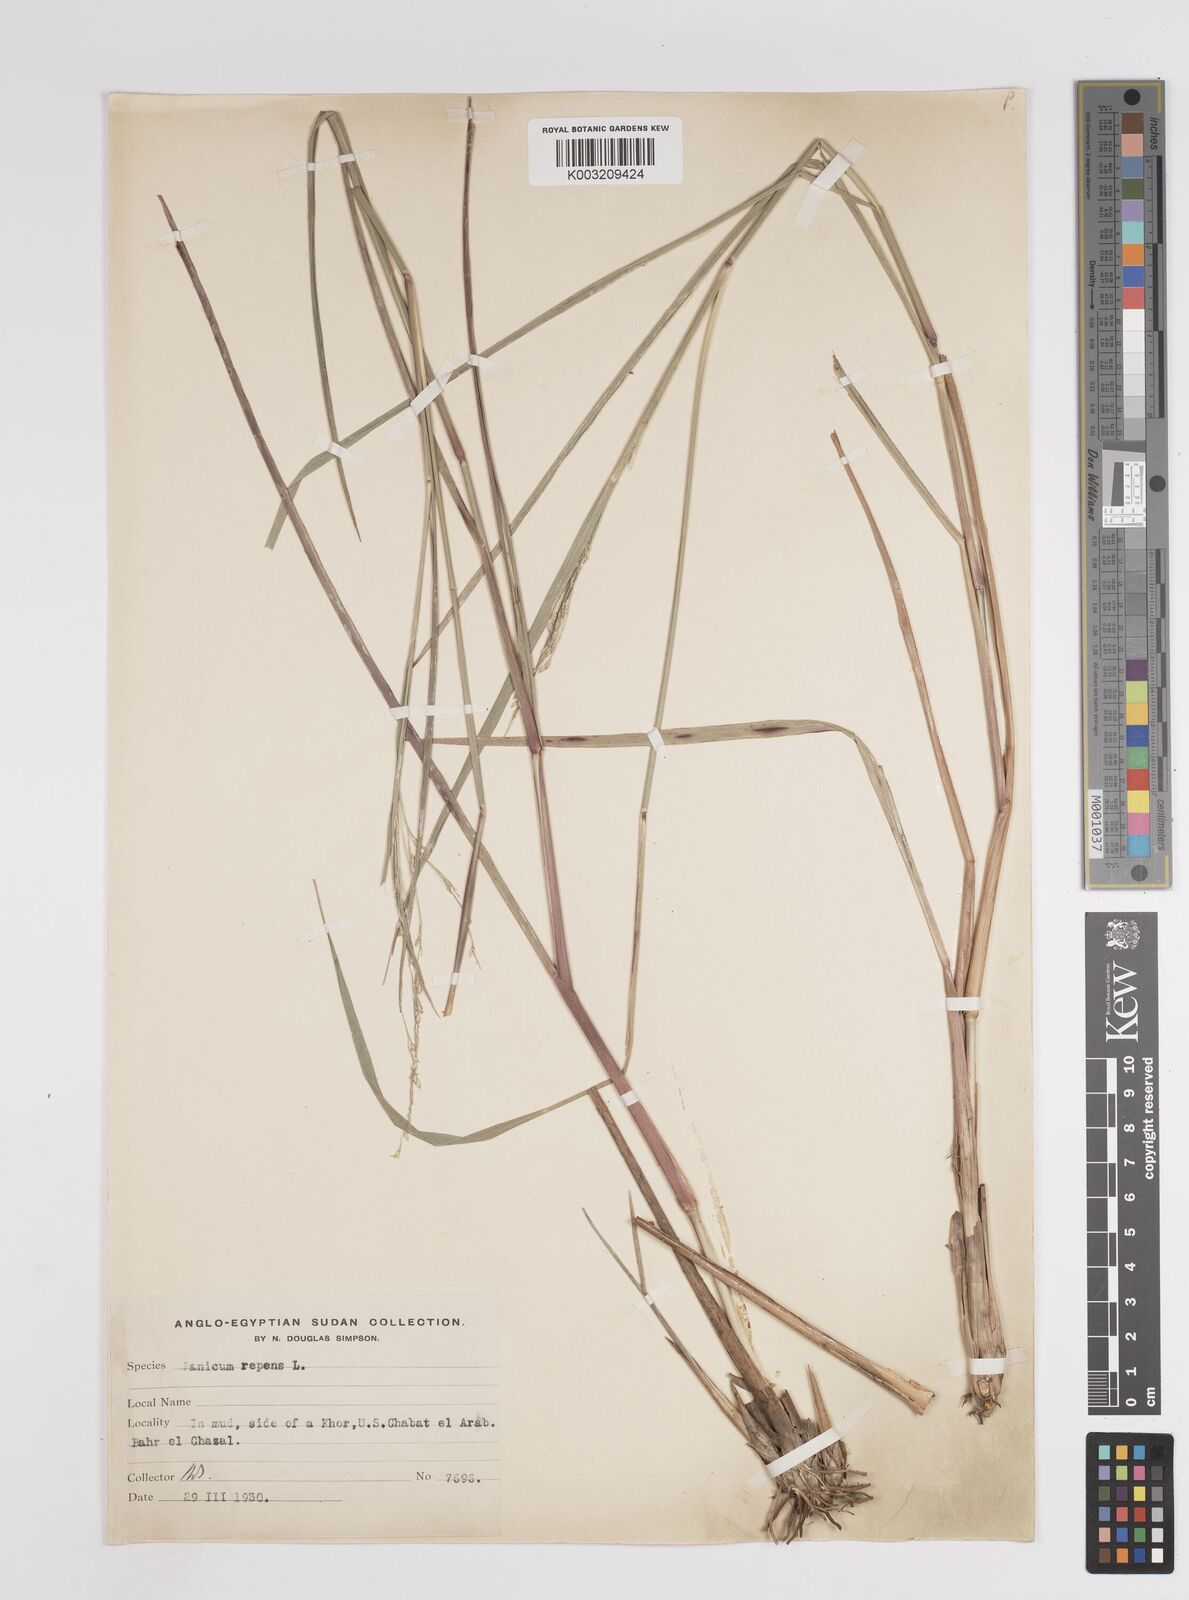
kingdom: Plantae
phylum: Tracheophyta
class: Liliopsida
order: Poales
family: Poaceae
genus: Panicum
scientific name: Panicum repens
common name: Torpedo grass
